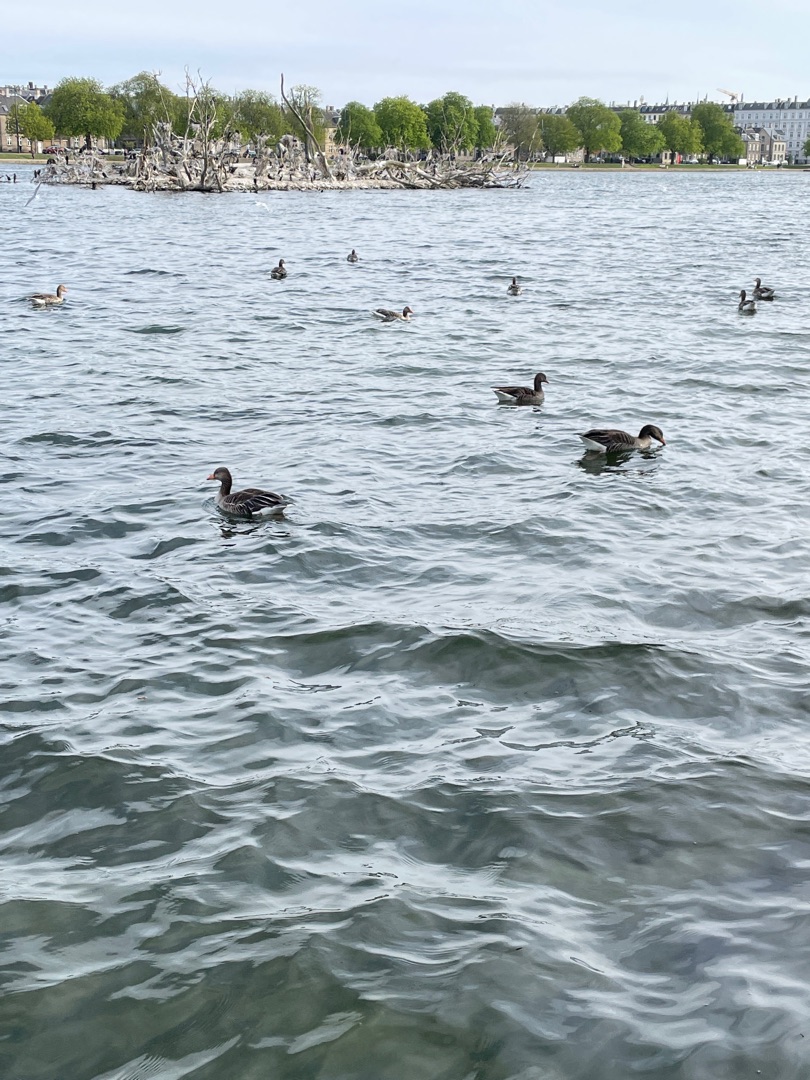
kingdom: Animalia
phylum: Chordata
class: Aves
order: Anseriformes
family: Anatidae
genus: Anser
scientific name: Anser anser
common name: Grågås
